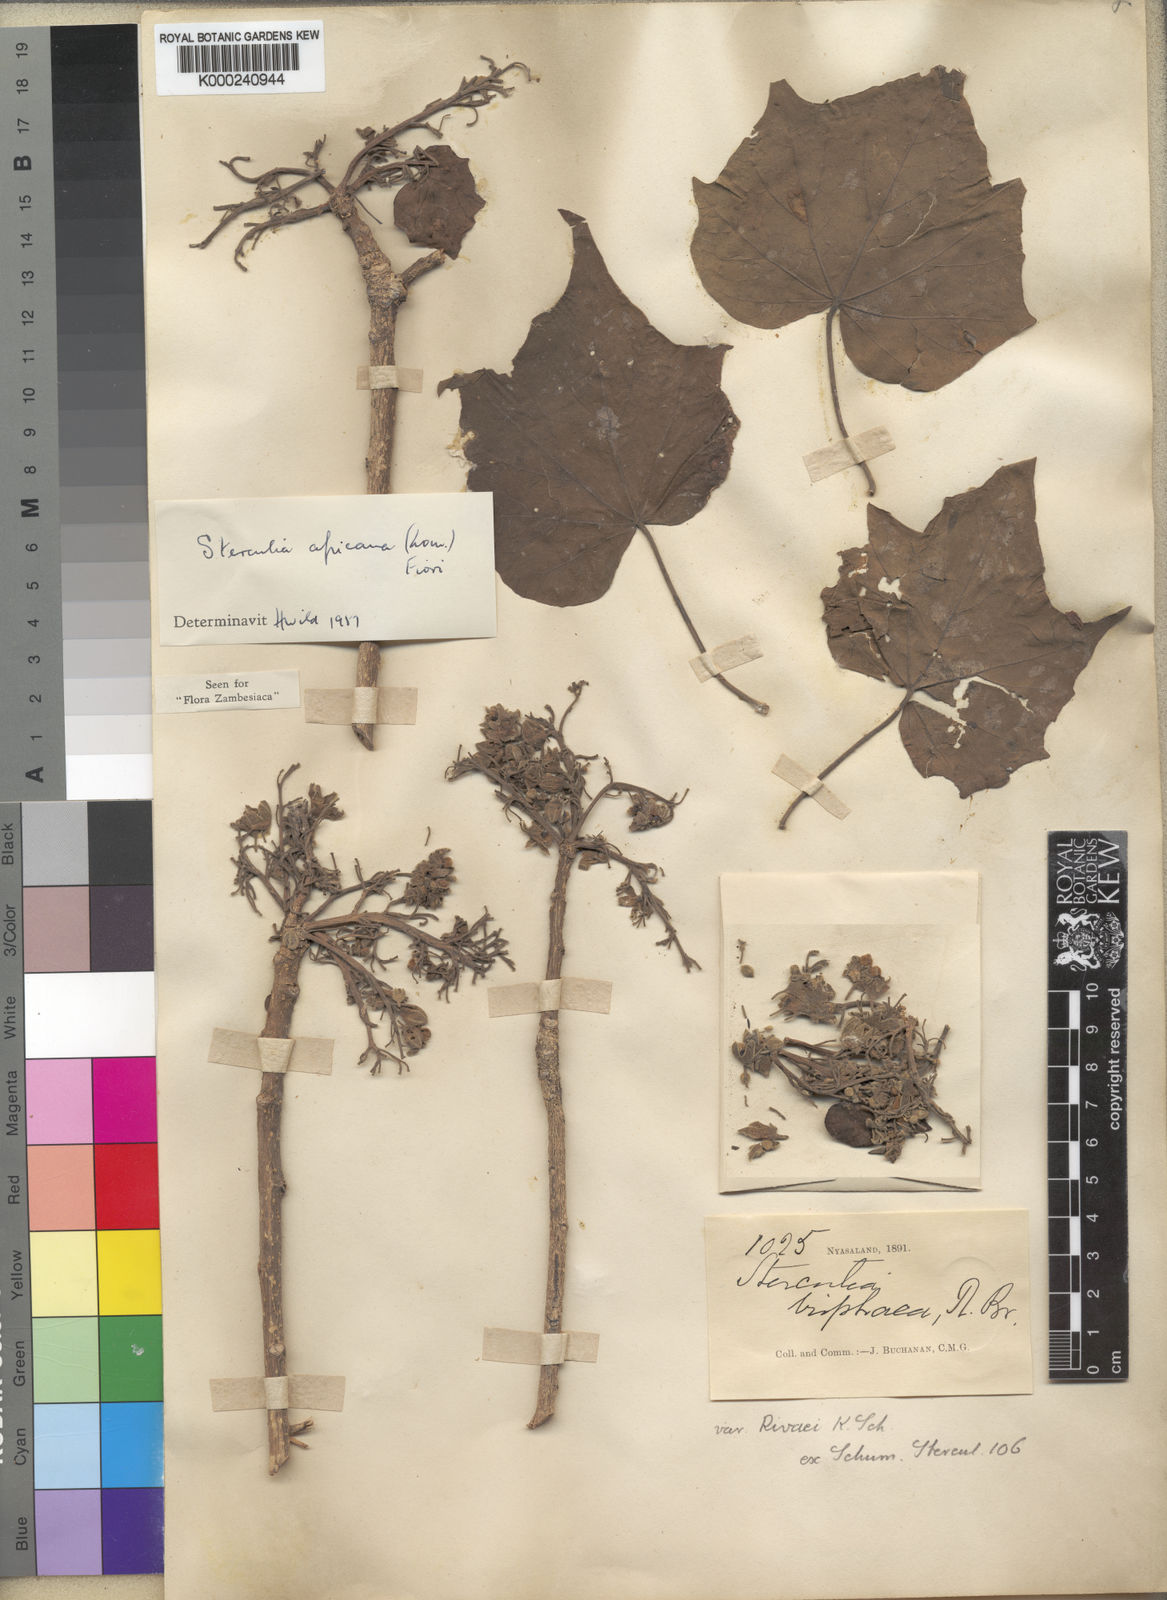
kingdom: Plantae
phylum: Tracheophyta
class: Magnoliopsida
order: Malvales
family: Malvaceae
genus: Sterculia
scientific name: Sterculia africana
